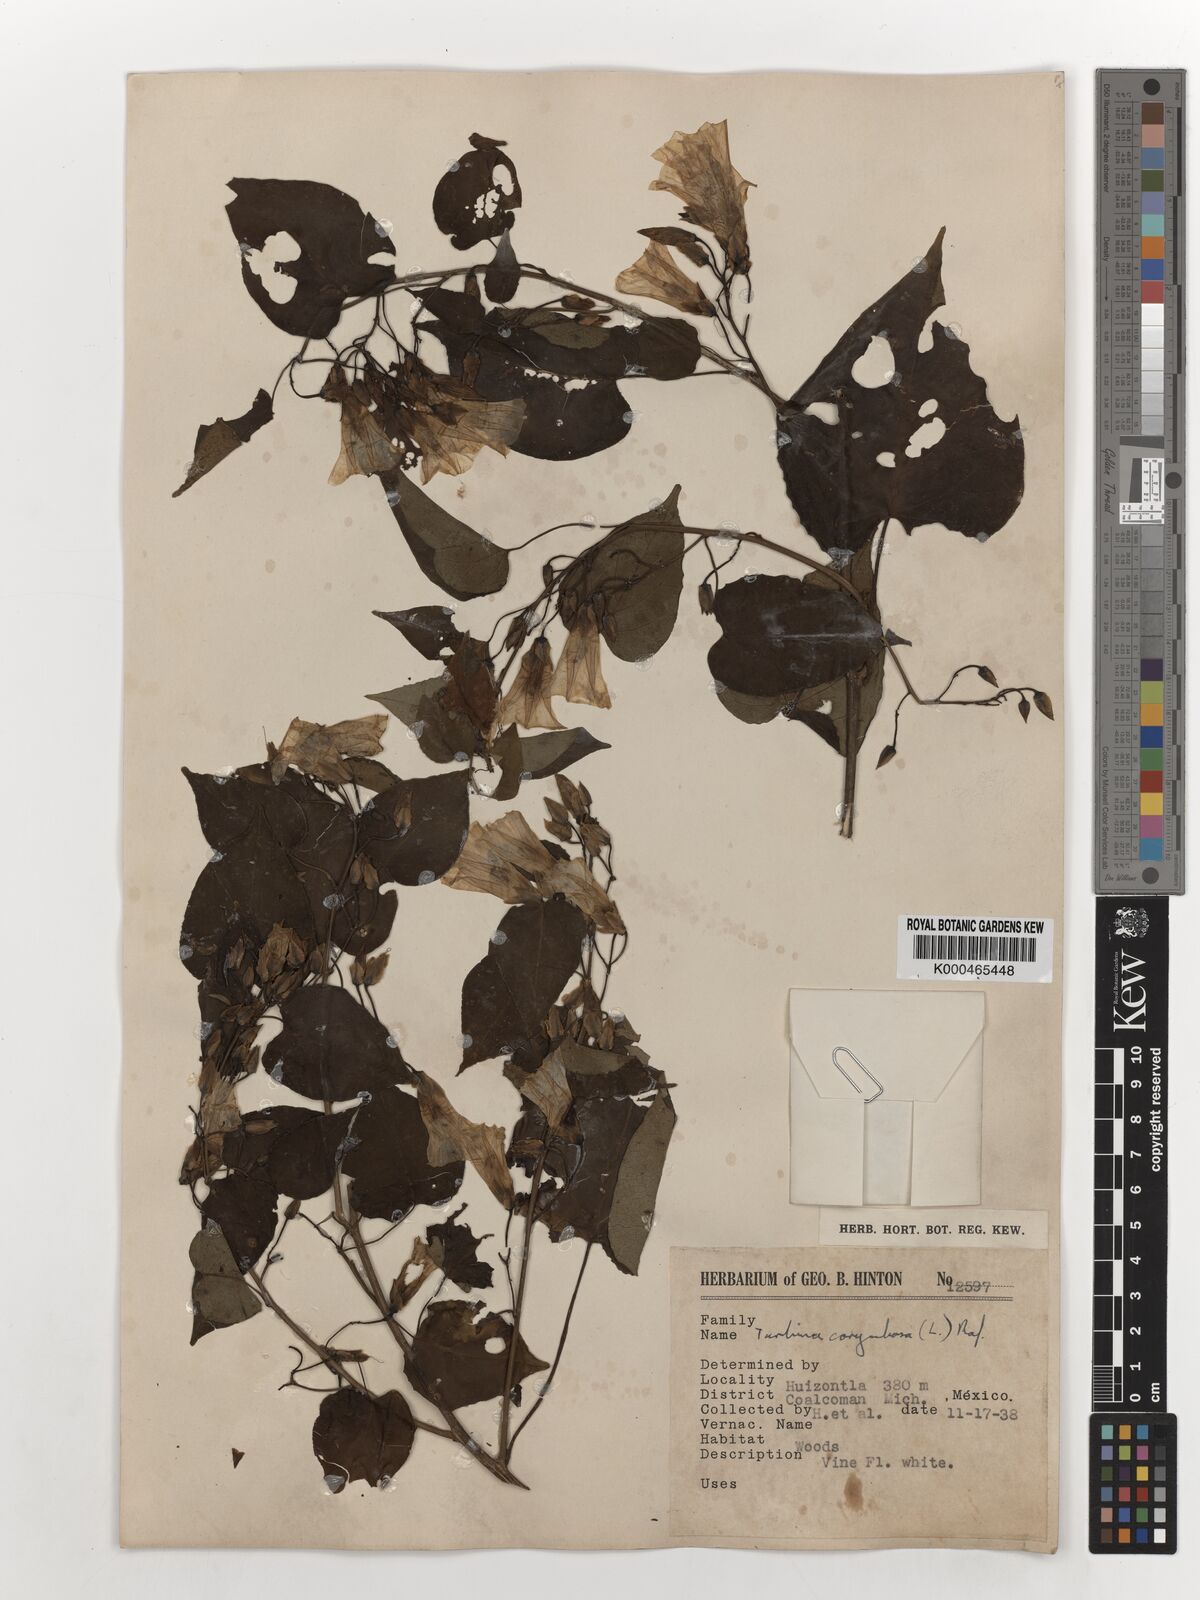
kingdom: Plantae
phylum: Tracheophyta
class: Magnoliopsida
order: Solanales
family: Convolvulaceae
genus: Ipomoea
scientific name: Ipomoea corymbosa
